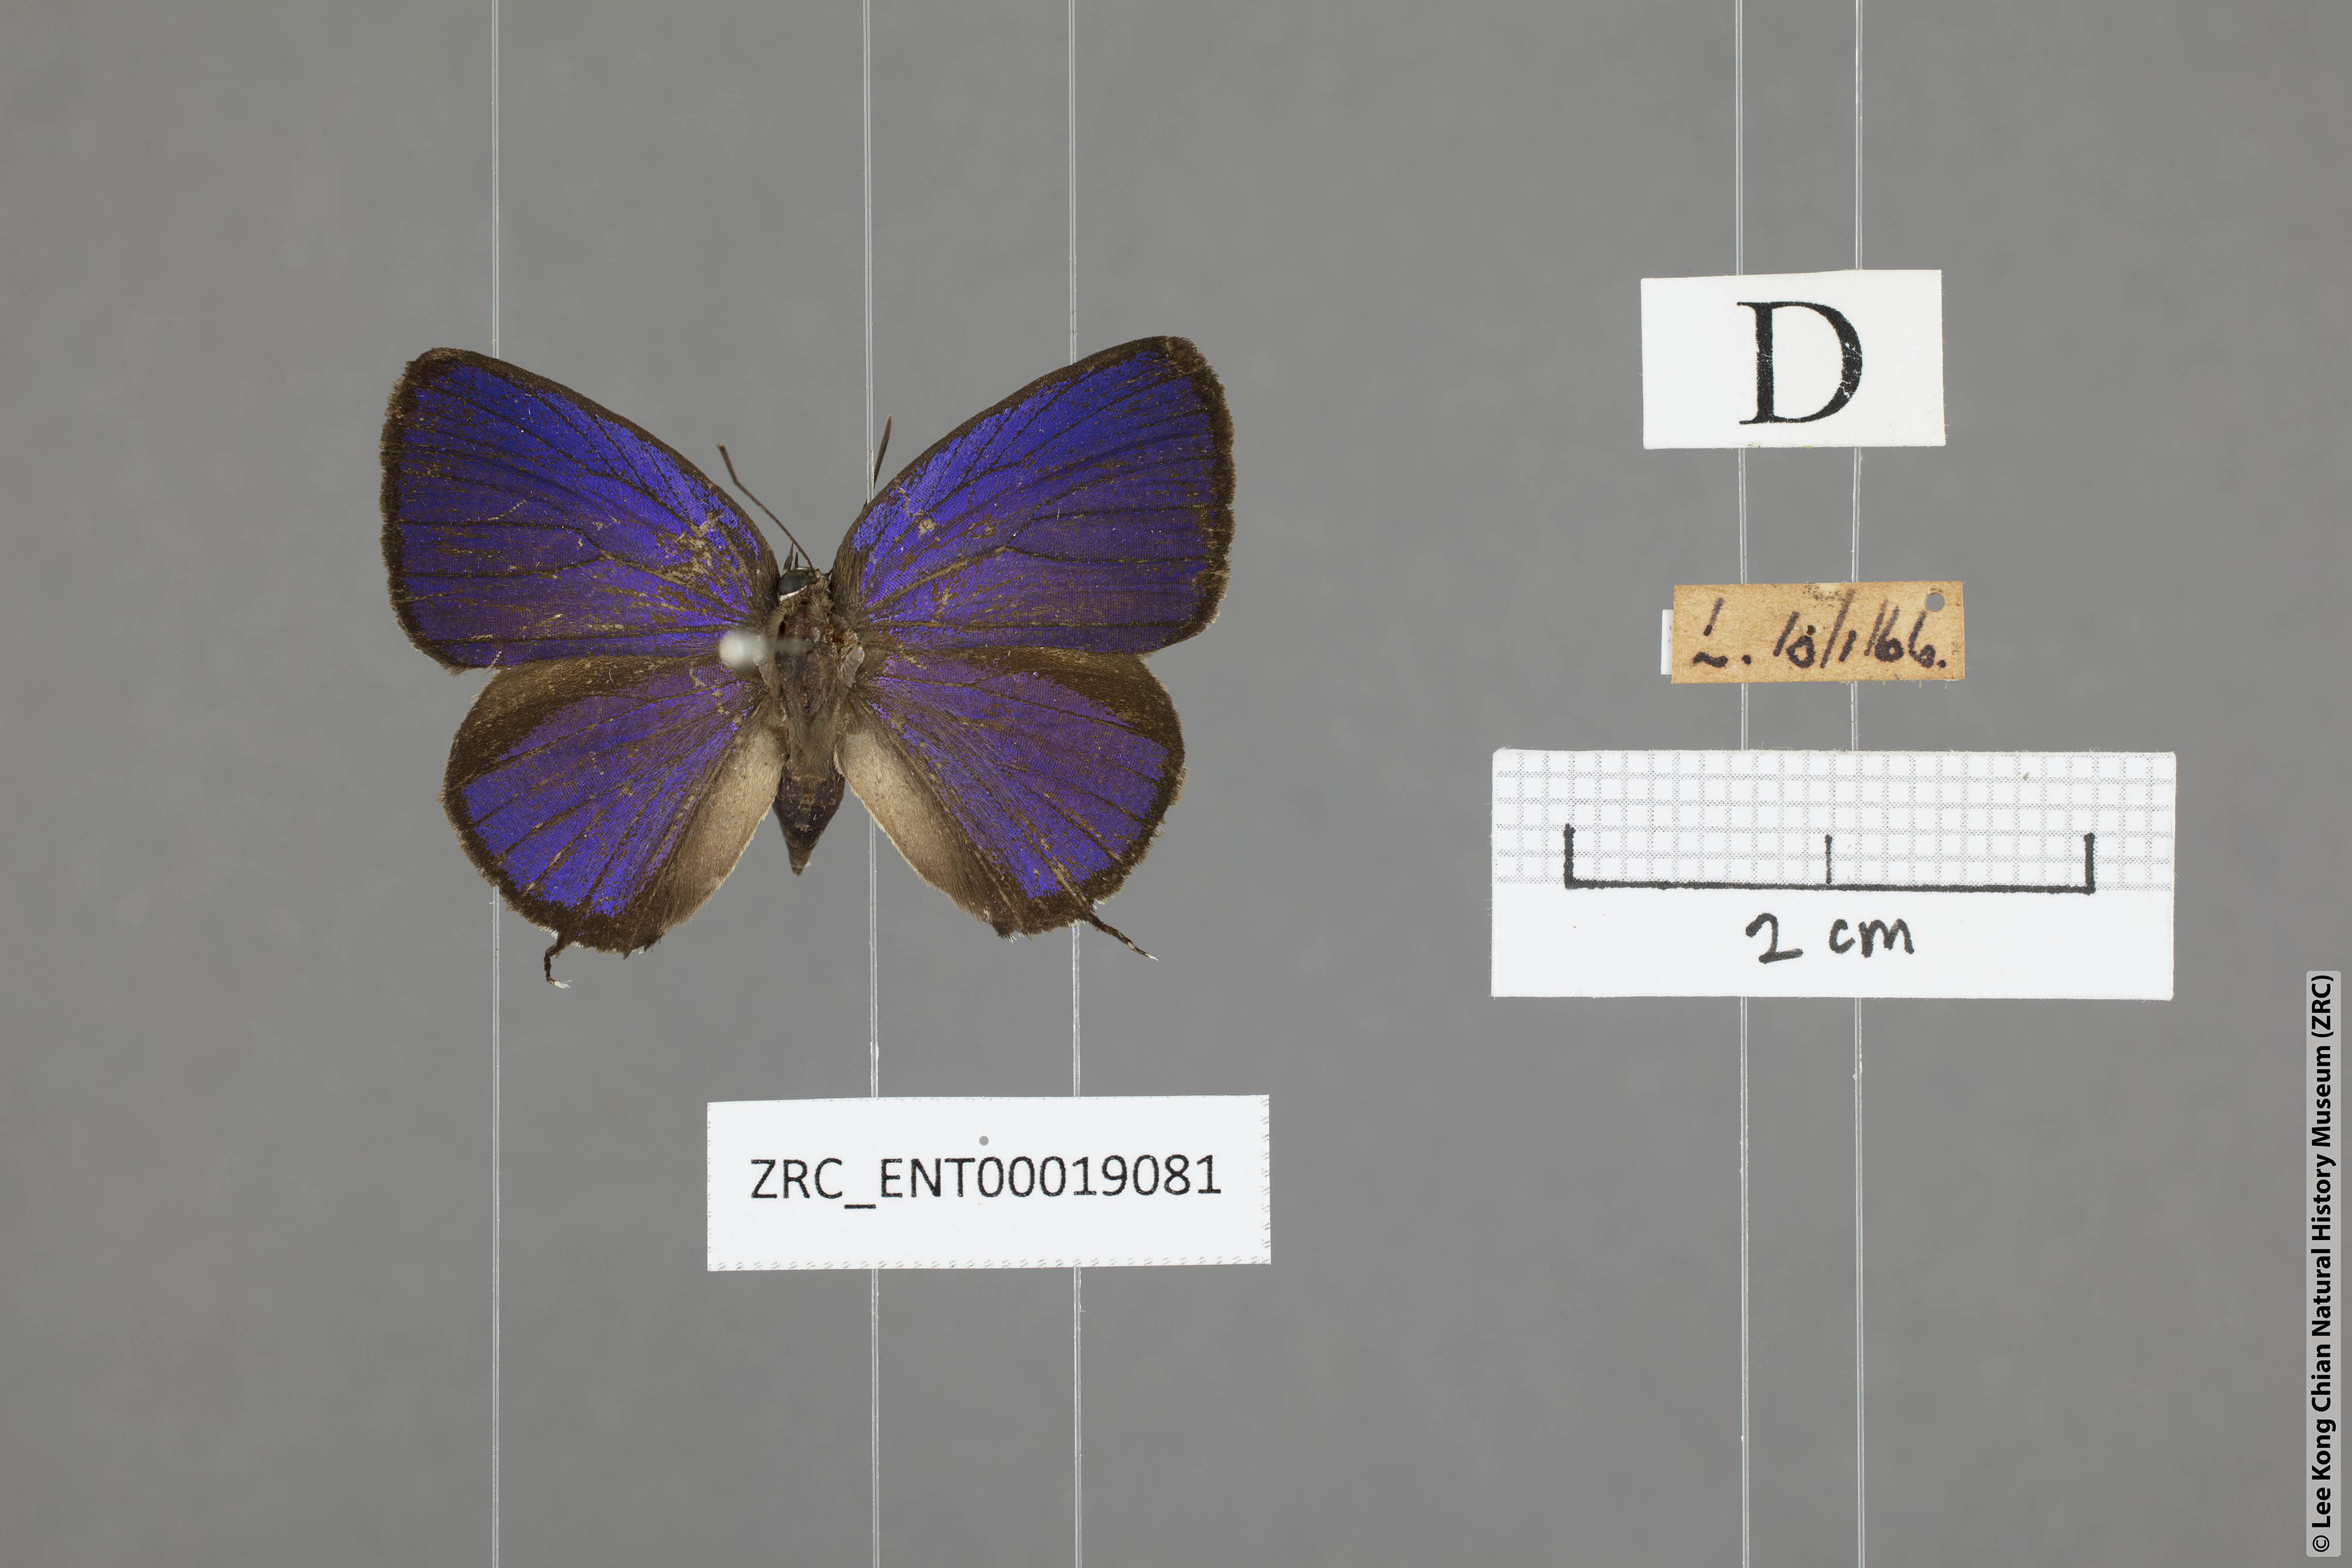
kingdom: Animalia
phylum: Arthropoda
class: Insecta
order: Lepidoptera
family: Lycaenidae
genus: Arhopala
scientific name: Arhopala alitaeus
